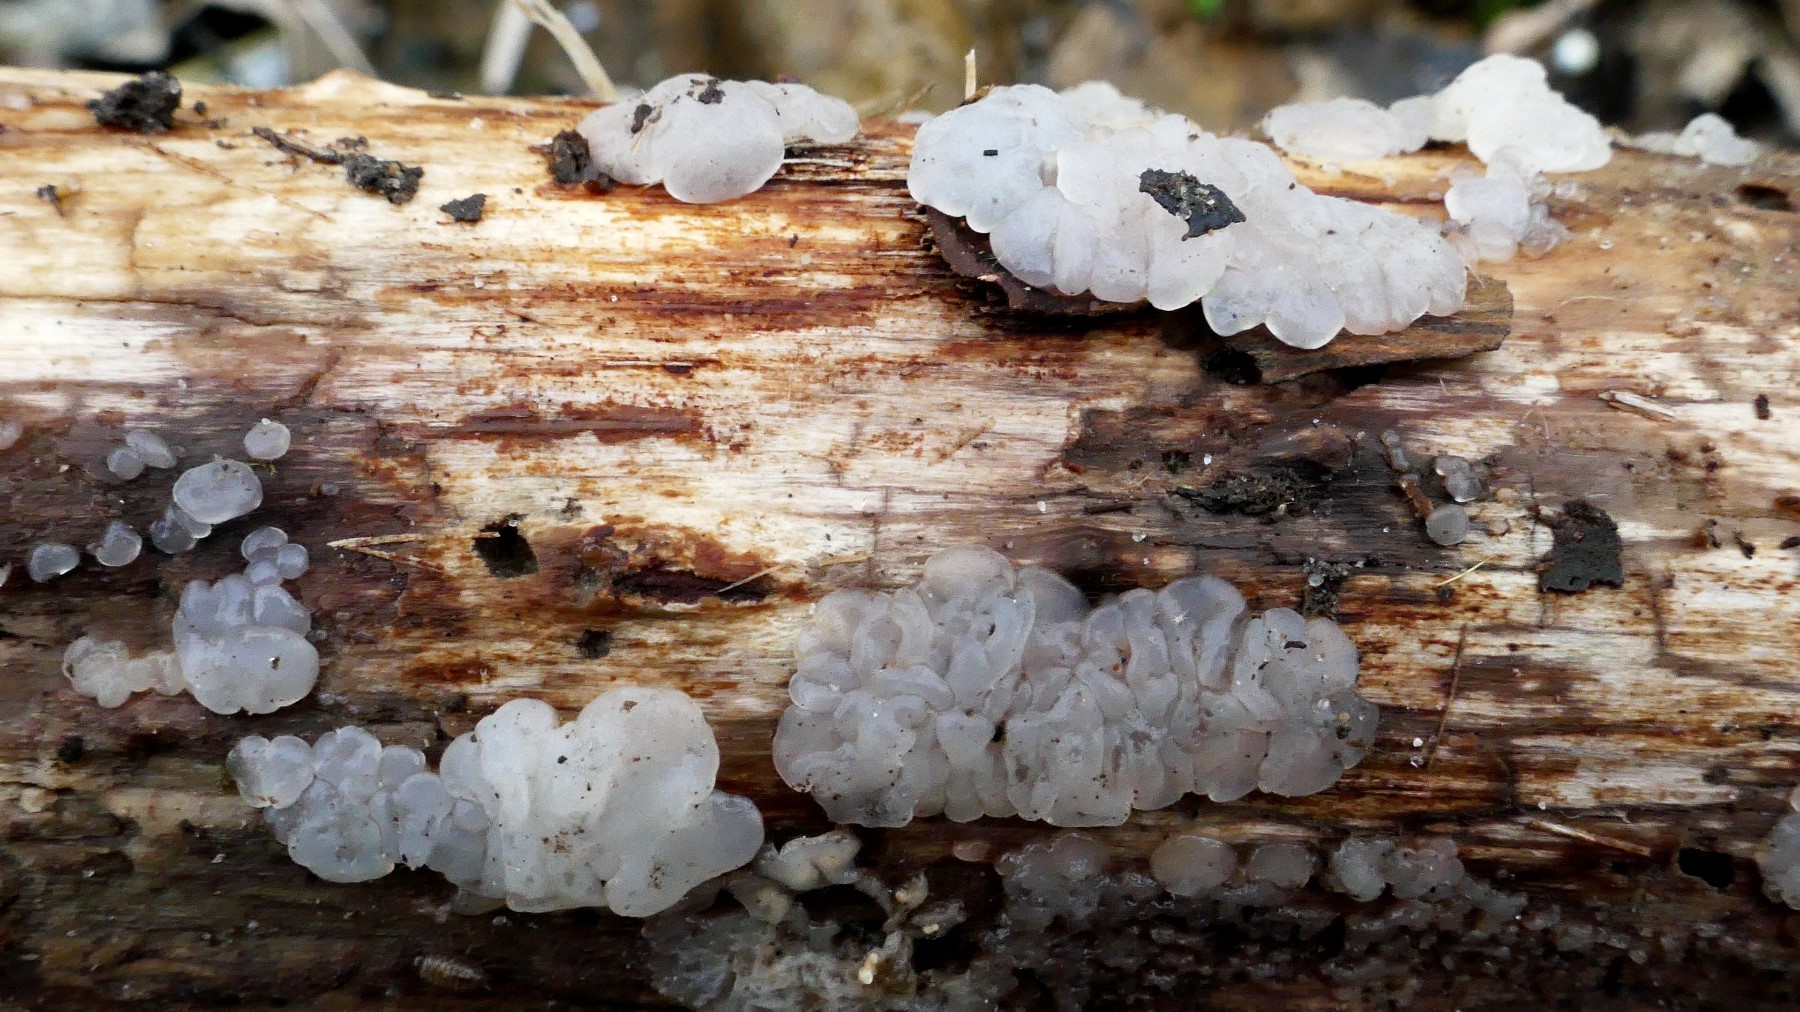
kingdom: Fungi
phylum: Basidiomycota
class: Agaricomycetes
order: Auriculariales
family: Hyaloriaceae
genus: Myxarium
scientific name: Myxarium nucleatum
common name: klar bævretop
